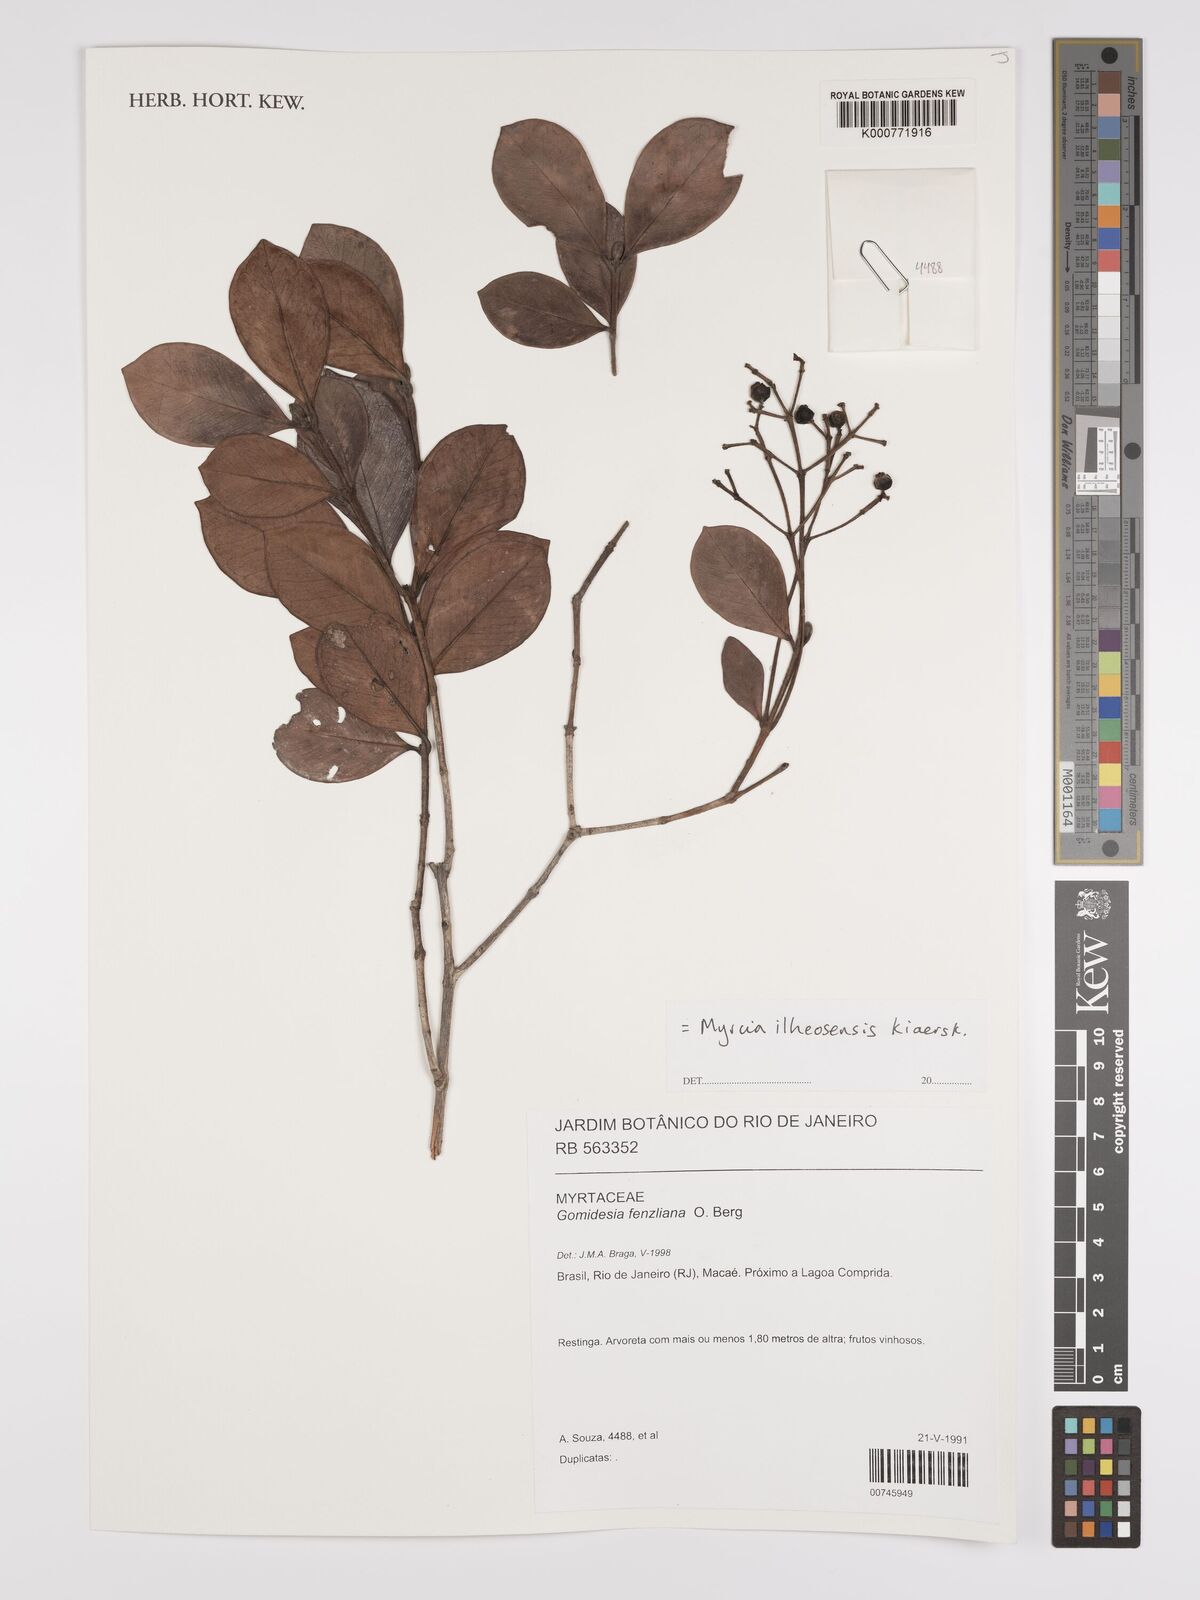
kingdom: Plantae
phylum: Tracheophyta
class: Magnoliopsida
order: Myrtales
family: Myrtaceae
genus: Myrcia
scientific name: Myrcia ilheosensis
